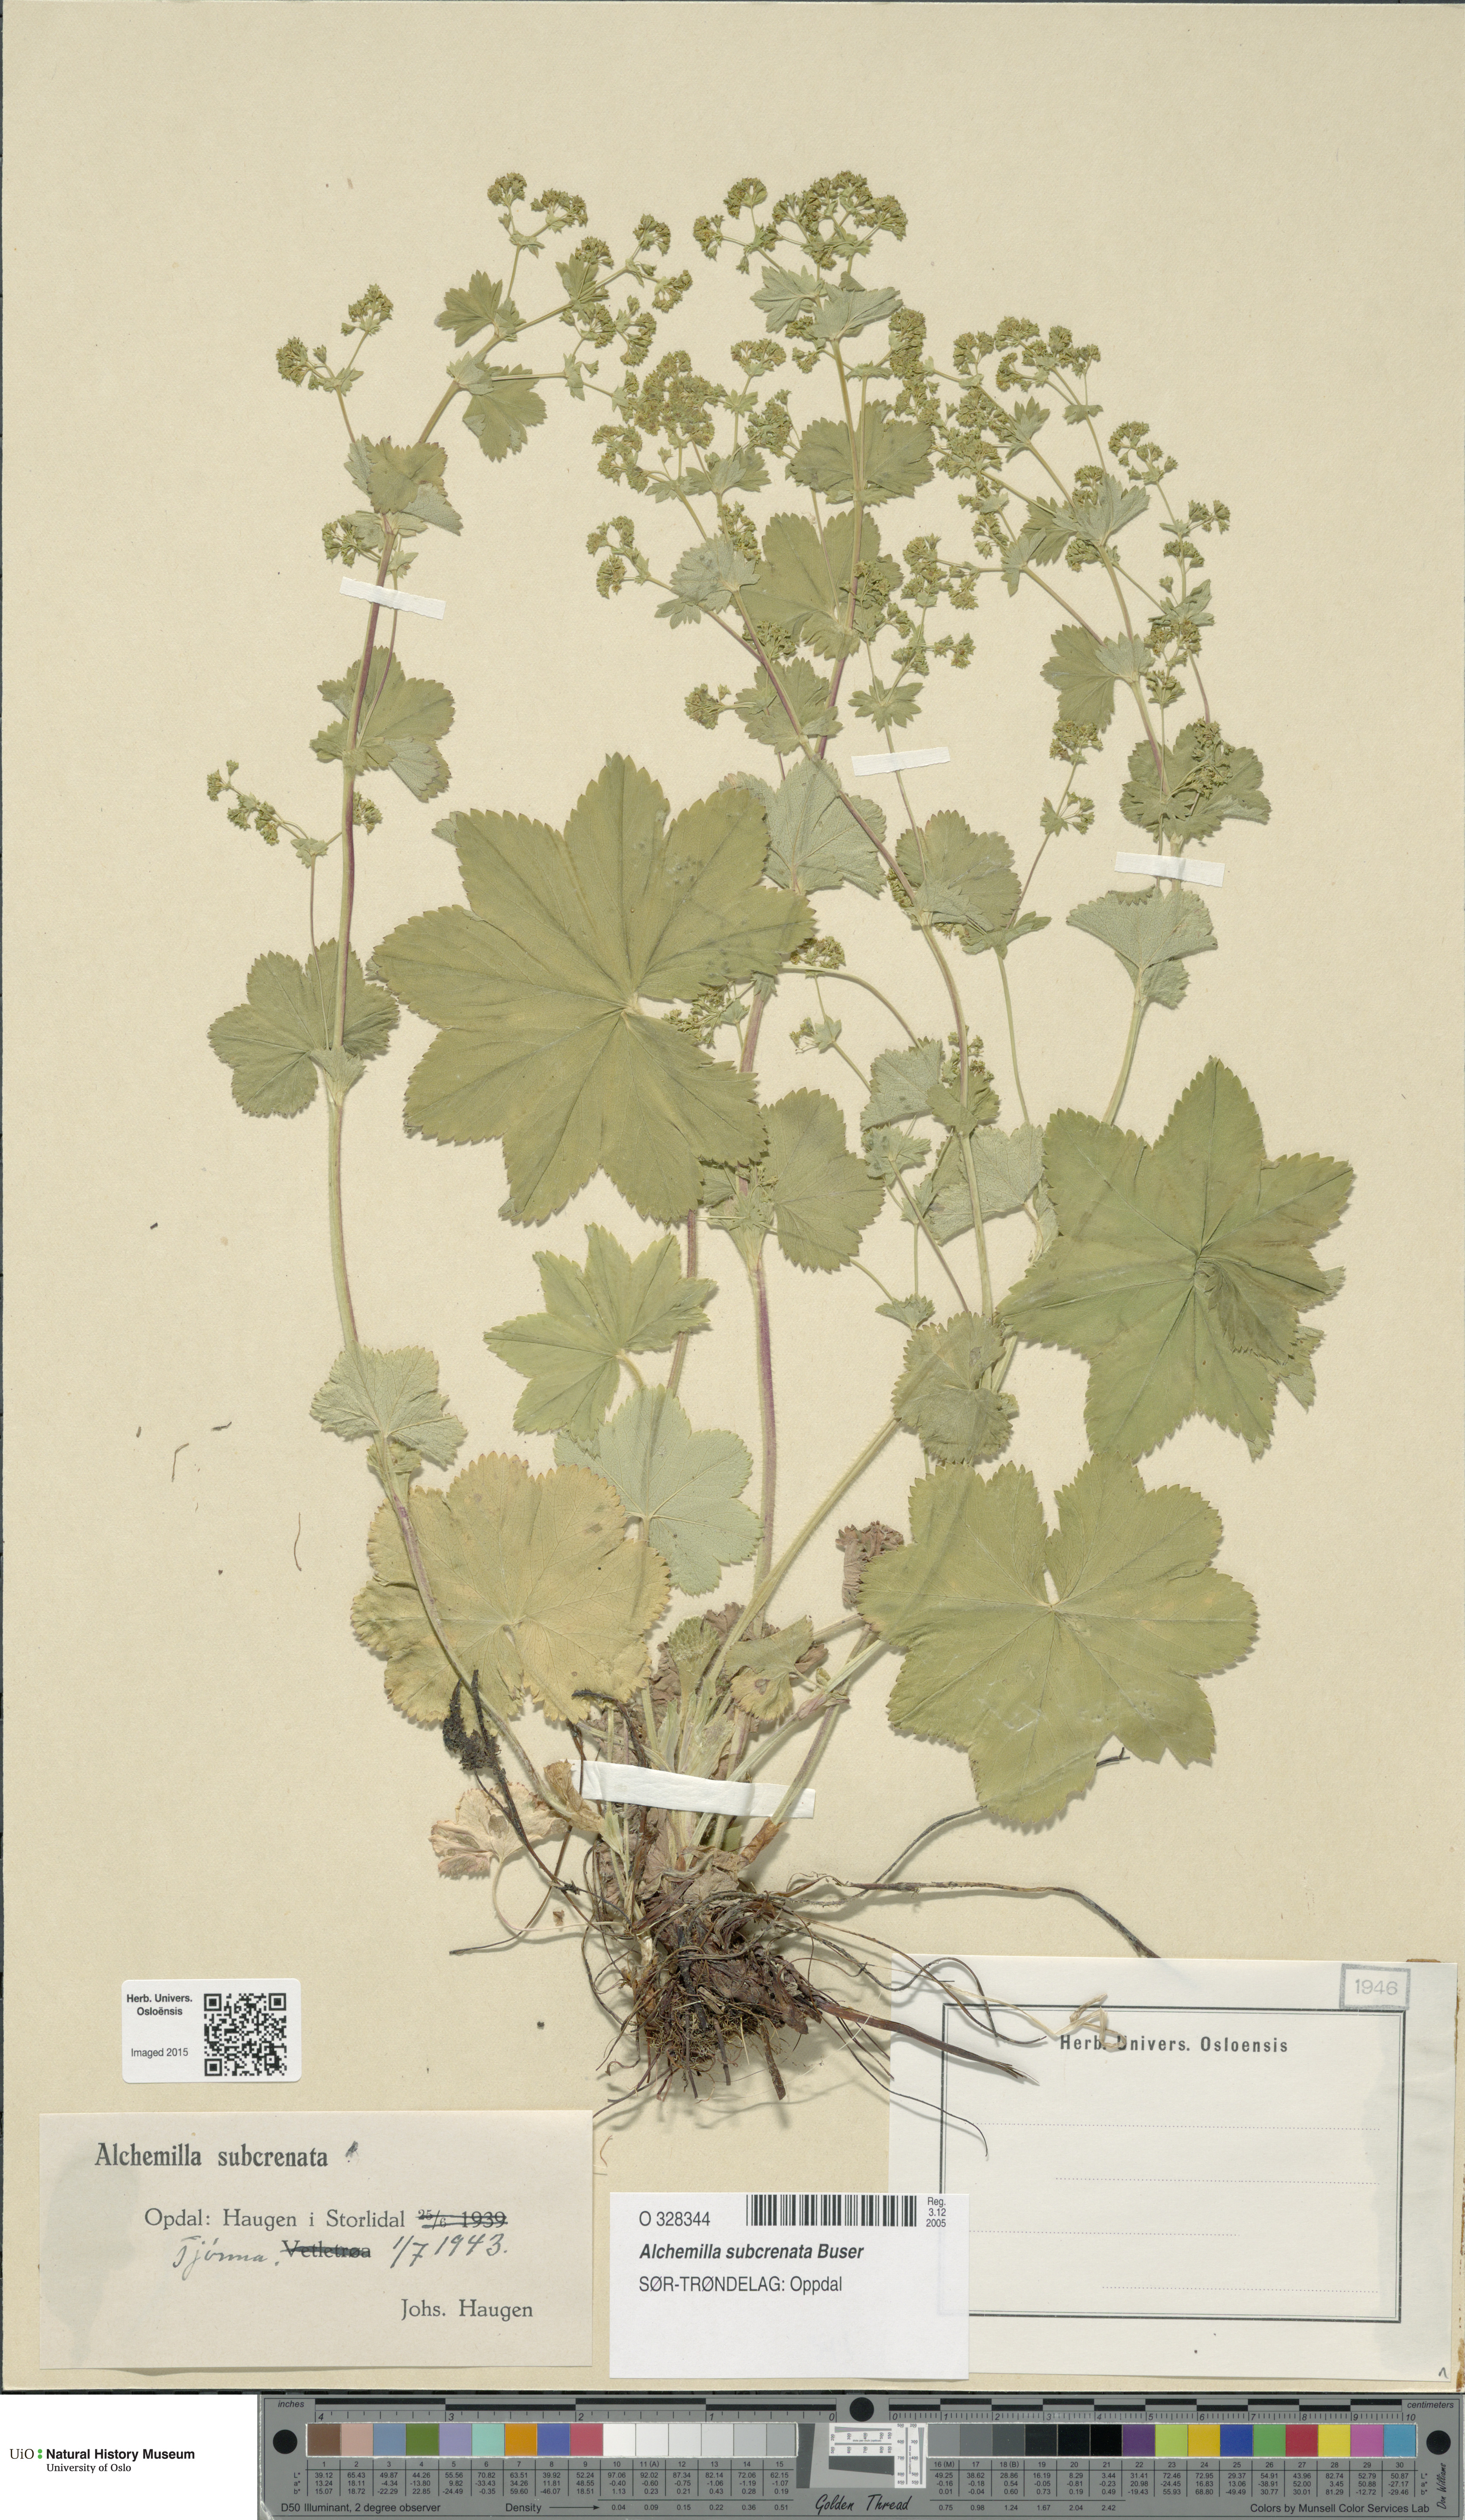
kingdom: Plantae
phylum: Tracheophyta
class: Magnoliopsida
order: Rosales
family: Rosaceae
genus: Alchemilla
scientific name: Alchemilla subcrenata
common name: Broadtooth lady's mantle
